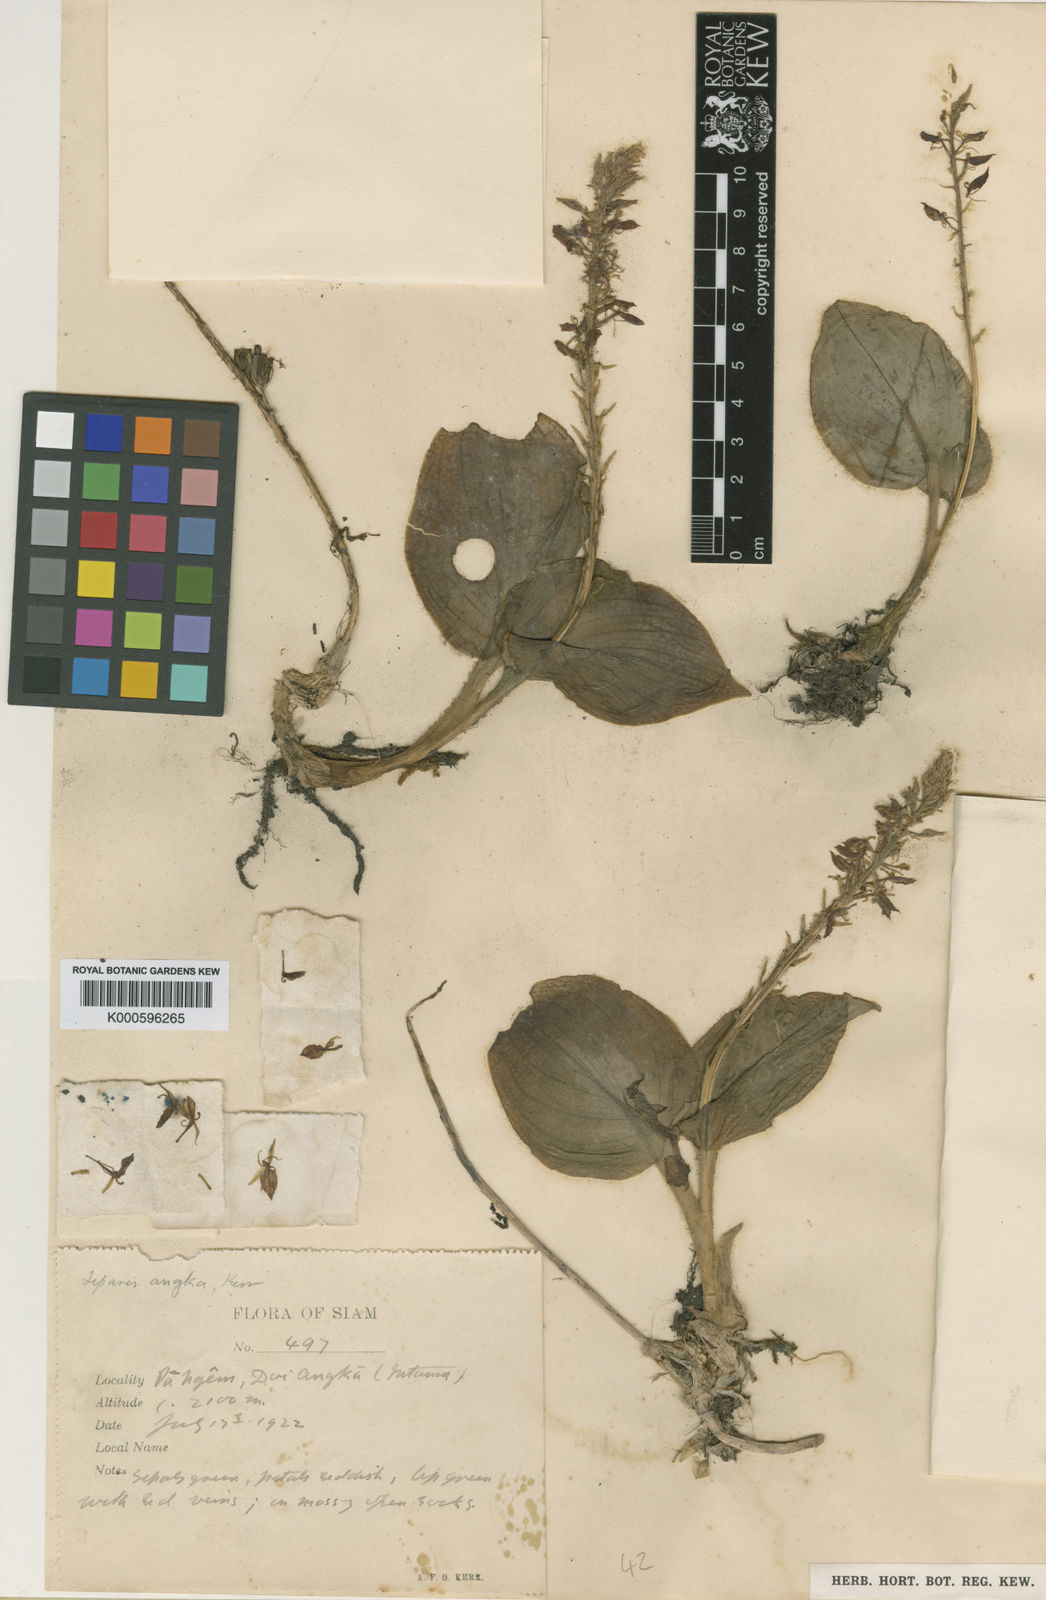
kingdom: Plantae
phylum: Tracheophyta
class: Liliopsida
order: Asparagales
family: Orchidaceae
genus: Liparis
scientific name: Liparis petiolata
